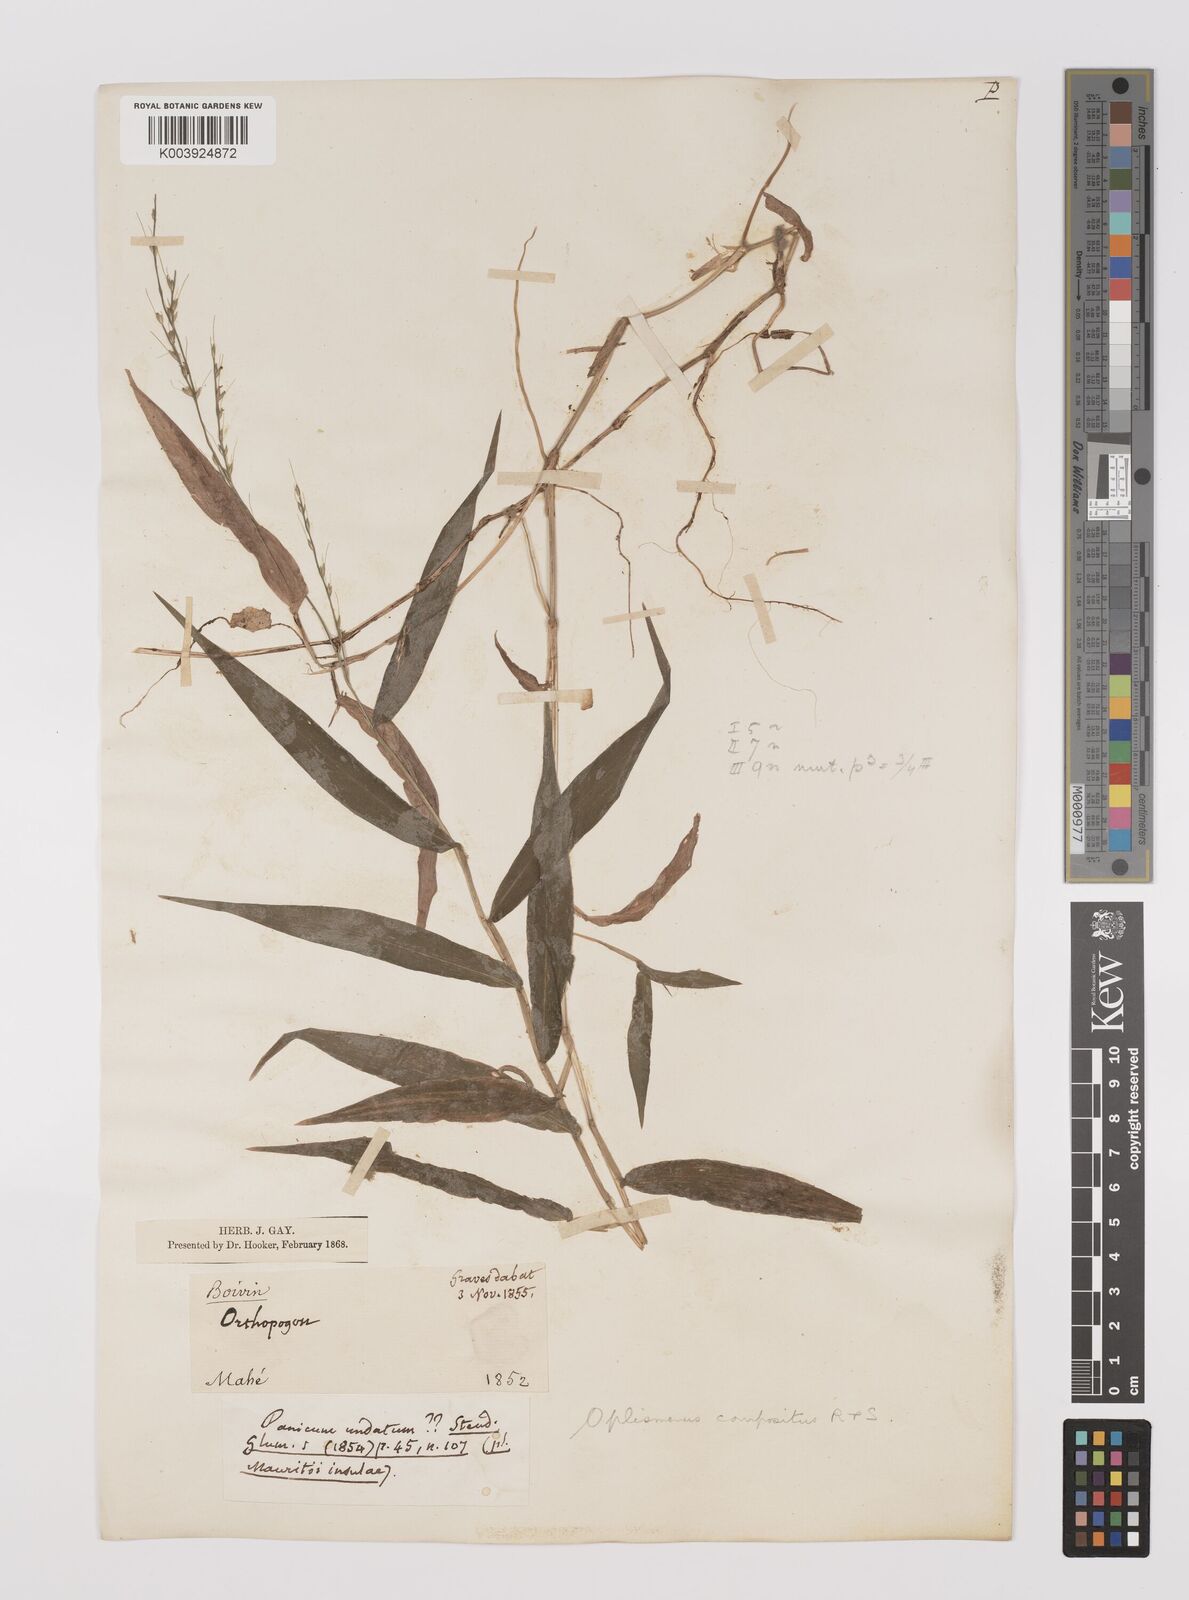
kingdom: Plantae
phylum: Tracheophyta
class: Liliopsida
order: Poales
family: Poaceae
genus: Oplismenus
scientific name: Oplismenus compositus
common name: Running mountain grass
